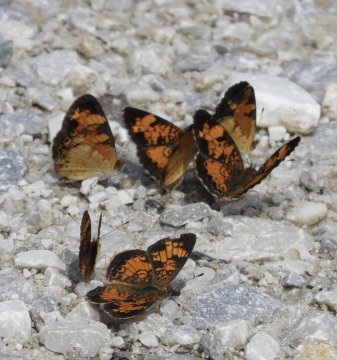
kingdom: Animalia
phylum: Arthropoda
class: Insecta
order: Lepidoptera
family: Nymphalidae
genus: Phyciodes
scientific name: Phyciodes
